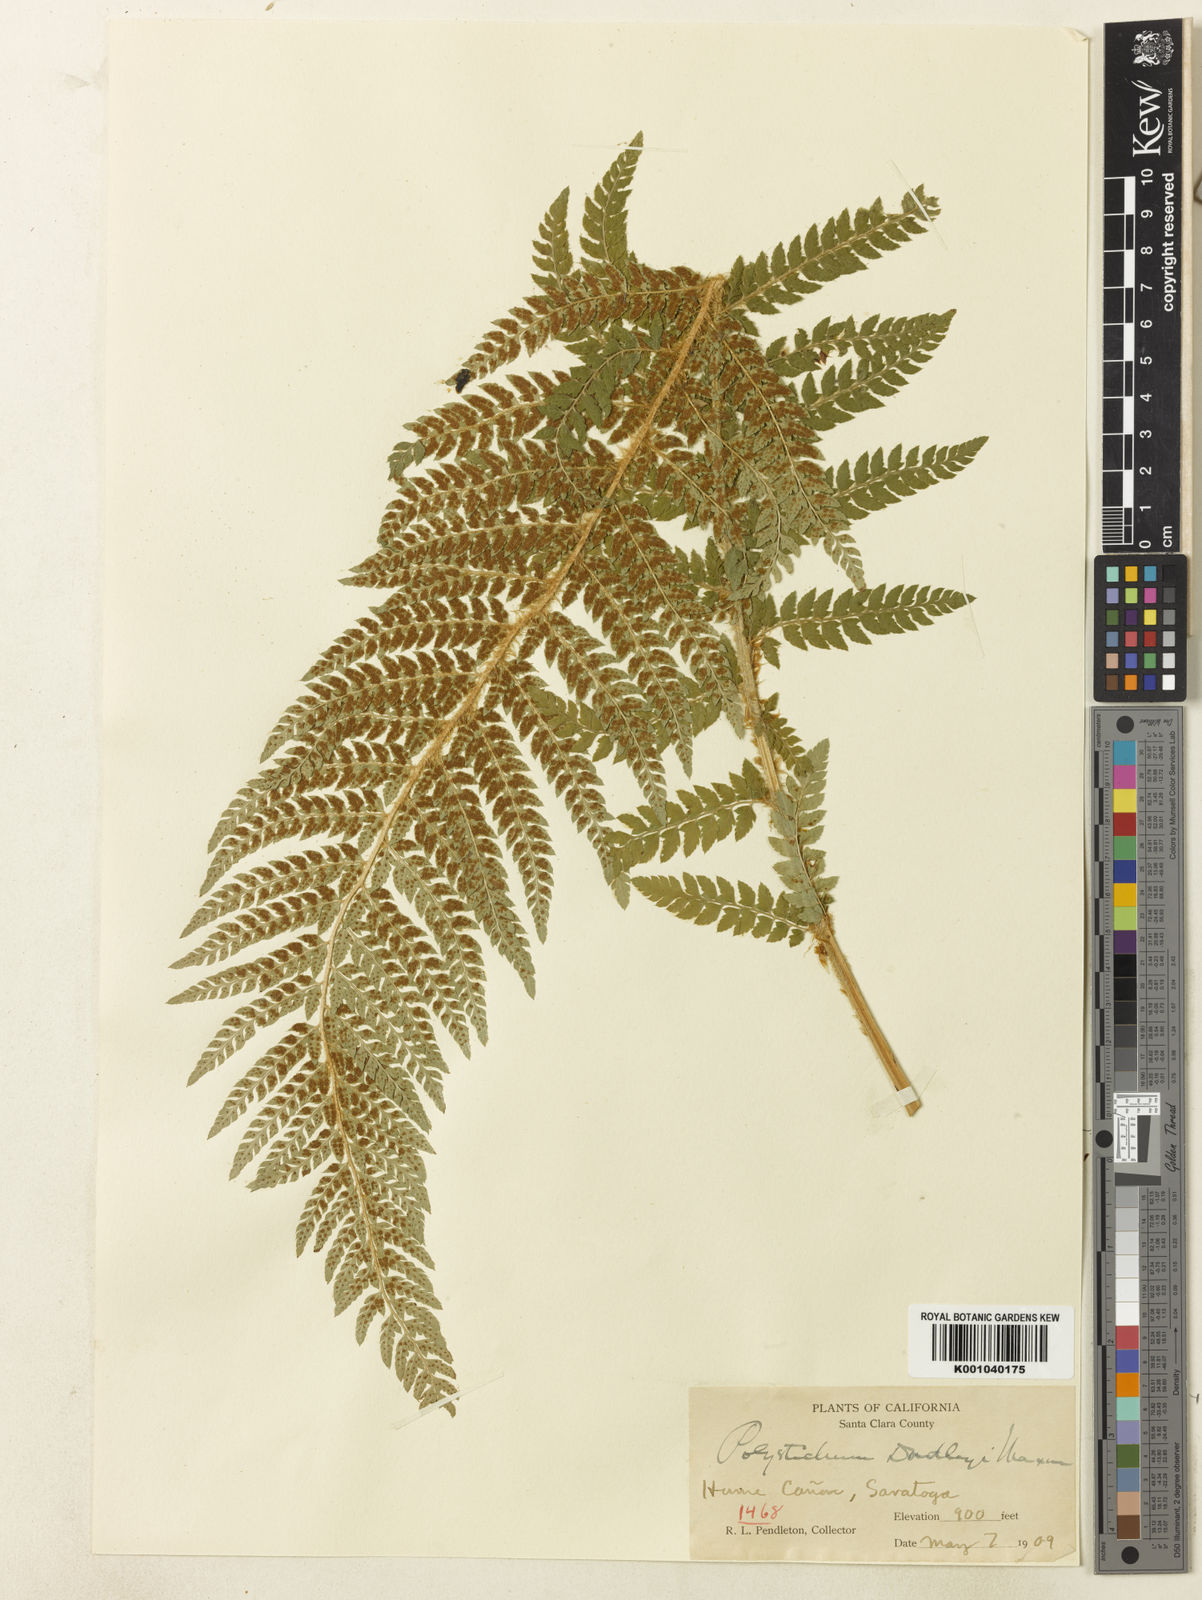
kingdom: Plantae
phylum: Tracheophyta
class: Polypodiopsida
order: Polypodiales
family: Dryopteridaceae
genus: Polystichum
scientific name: Polystichum dudleyi
